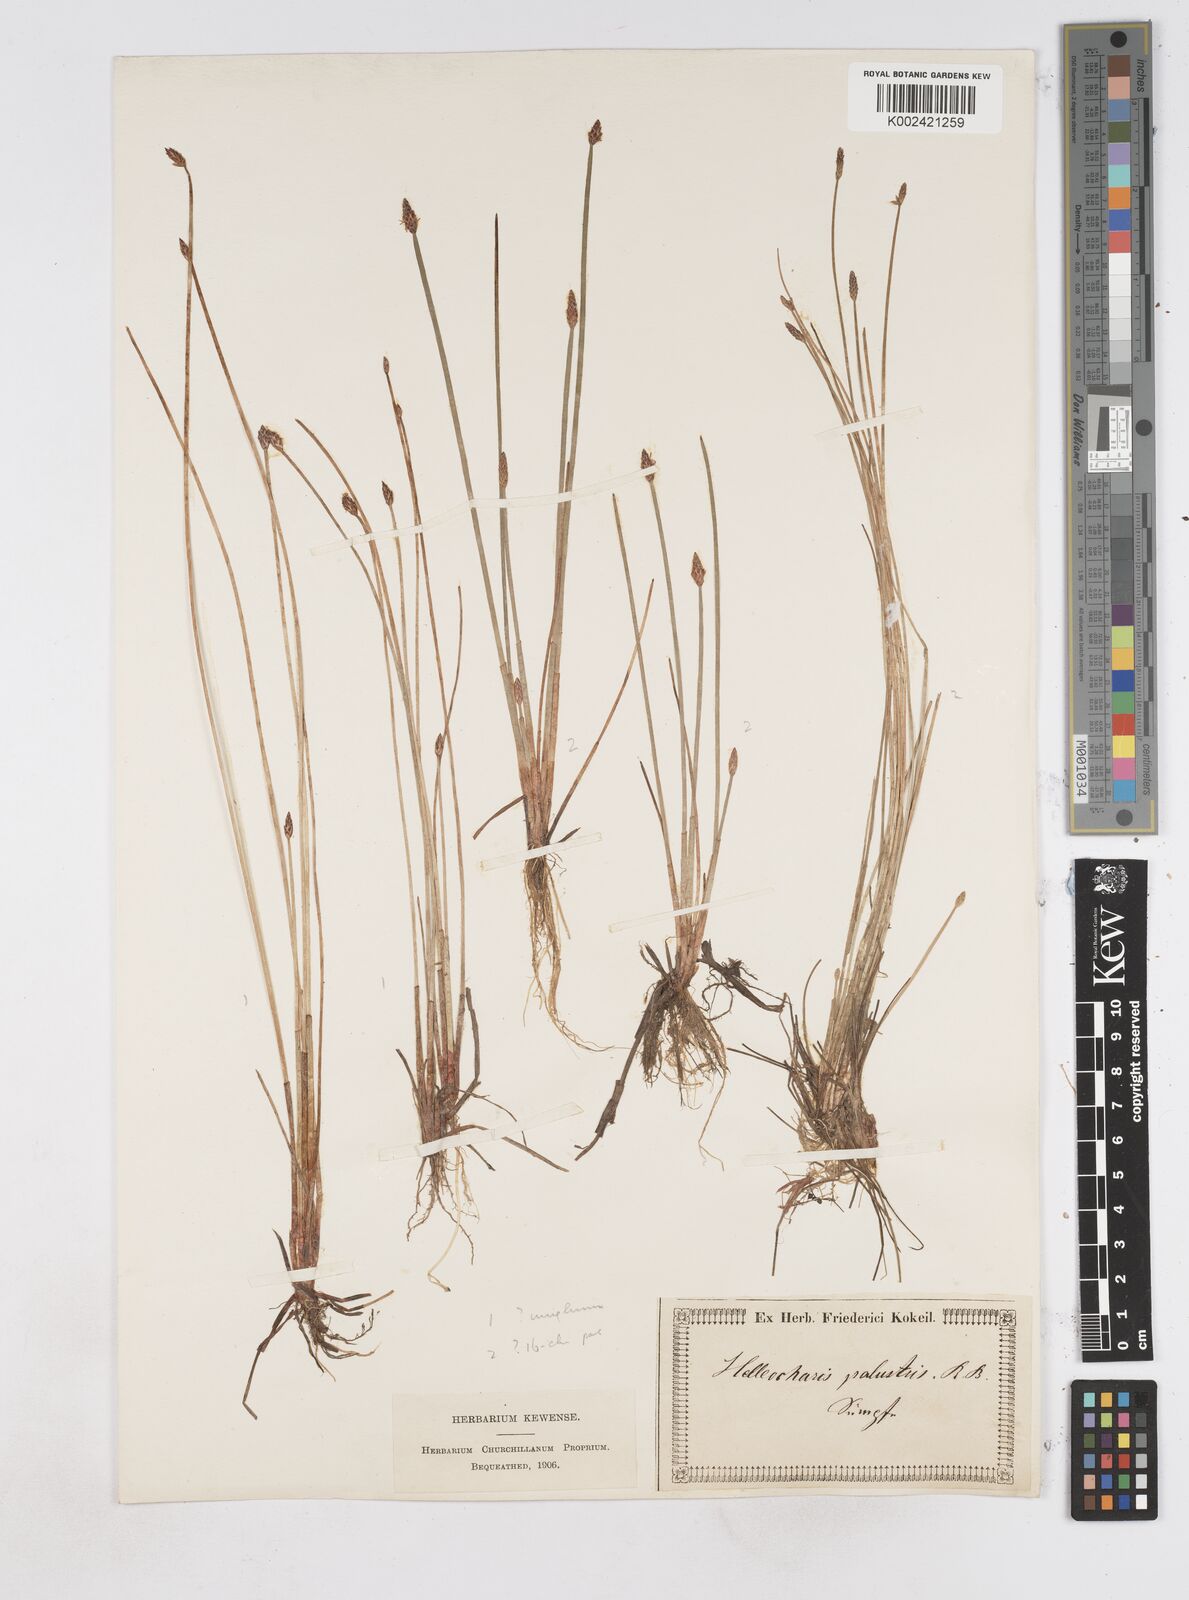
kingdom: Plantae
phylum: Tracheophyta
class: Liliopsida
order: Poales
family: Cyperaceae
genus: Eleocharis
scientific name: Eleocharis palustris
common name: Common spike-rush
